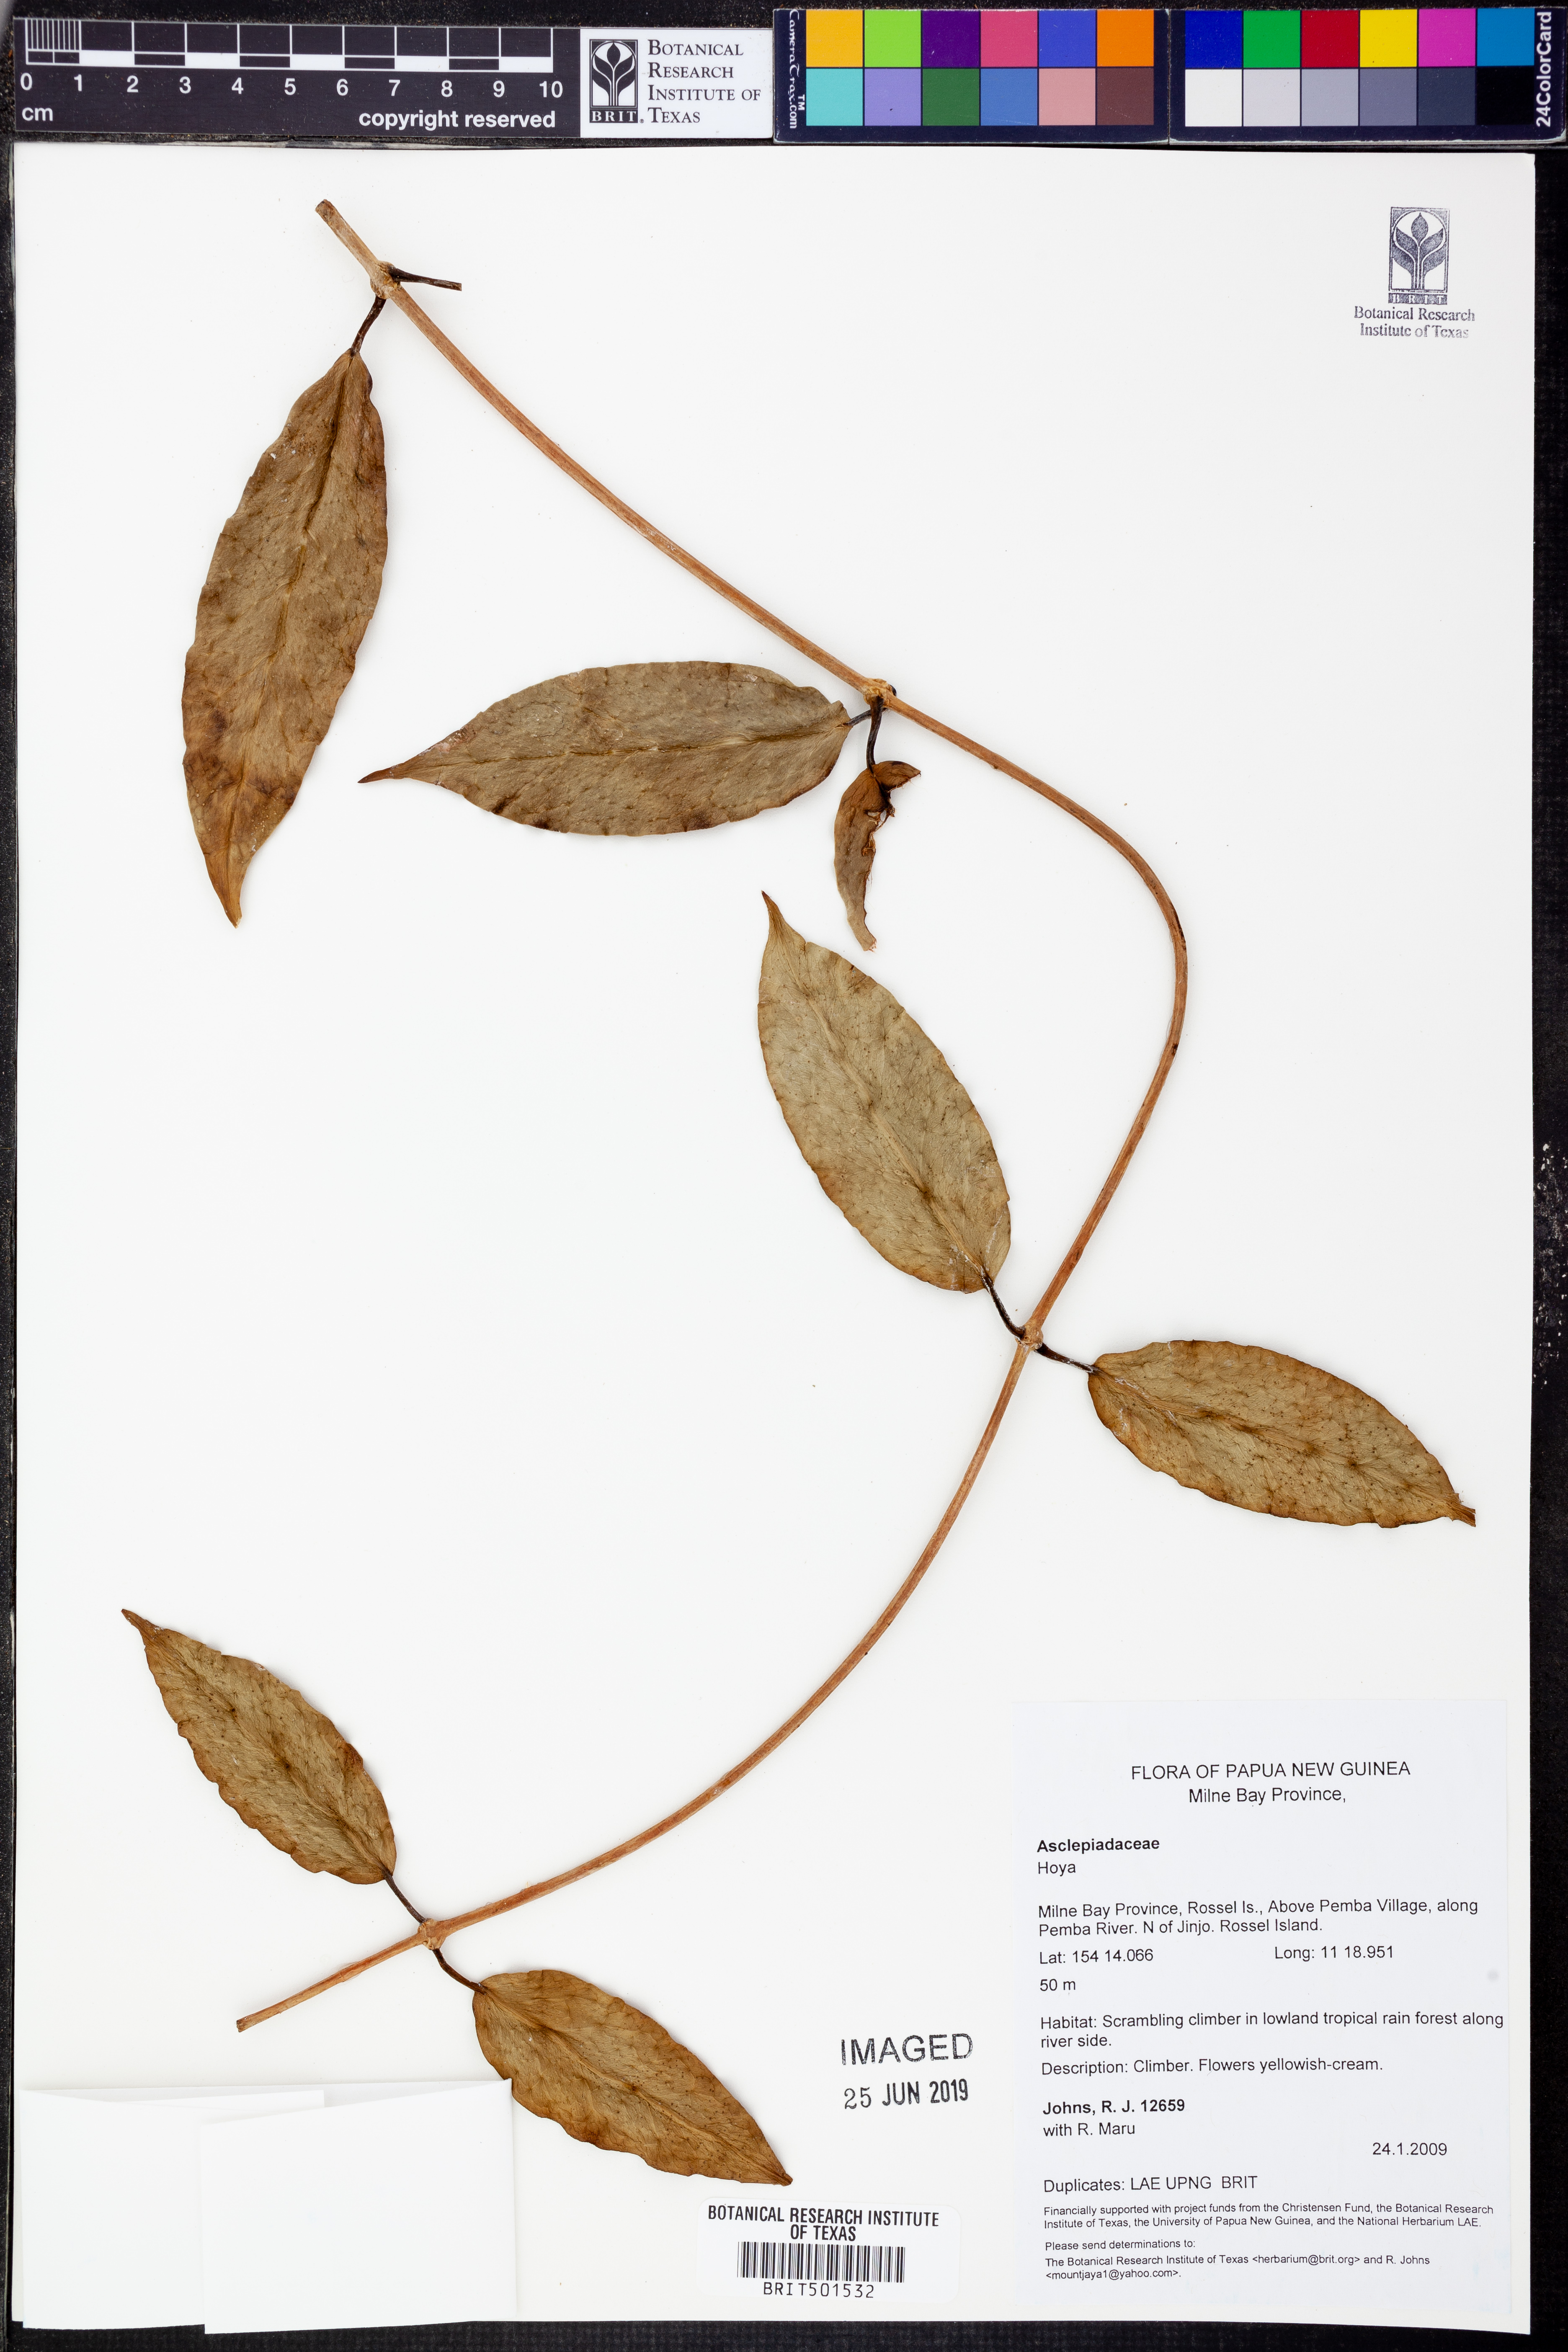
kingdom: Plantae
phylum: Tracheophyta
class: Magnoliopsida
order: Gentianales
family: Apocynaceae
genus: Hoya
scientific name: Hoya
